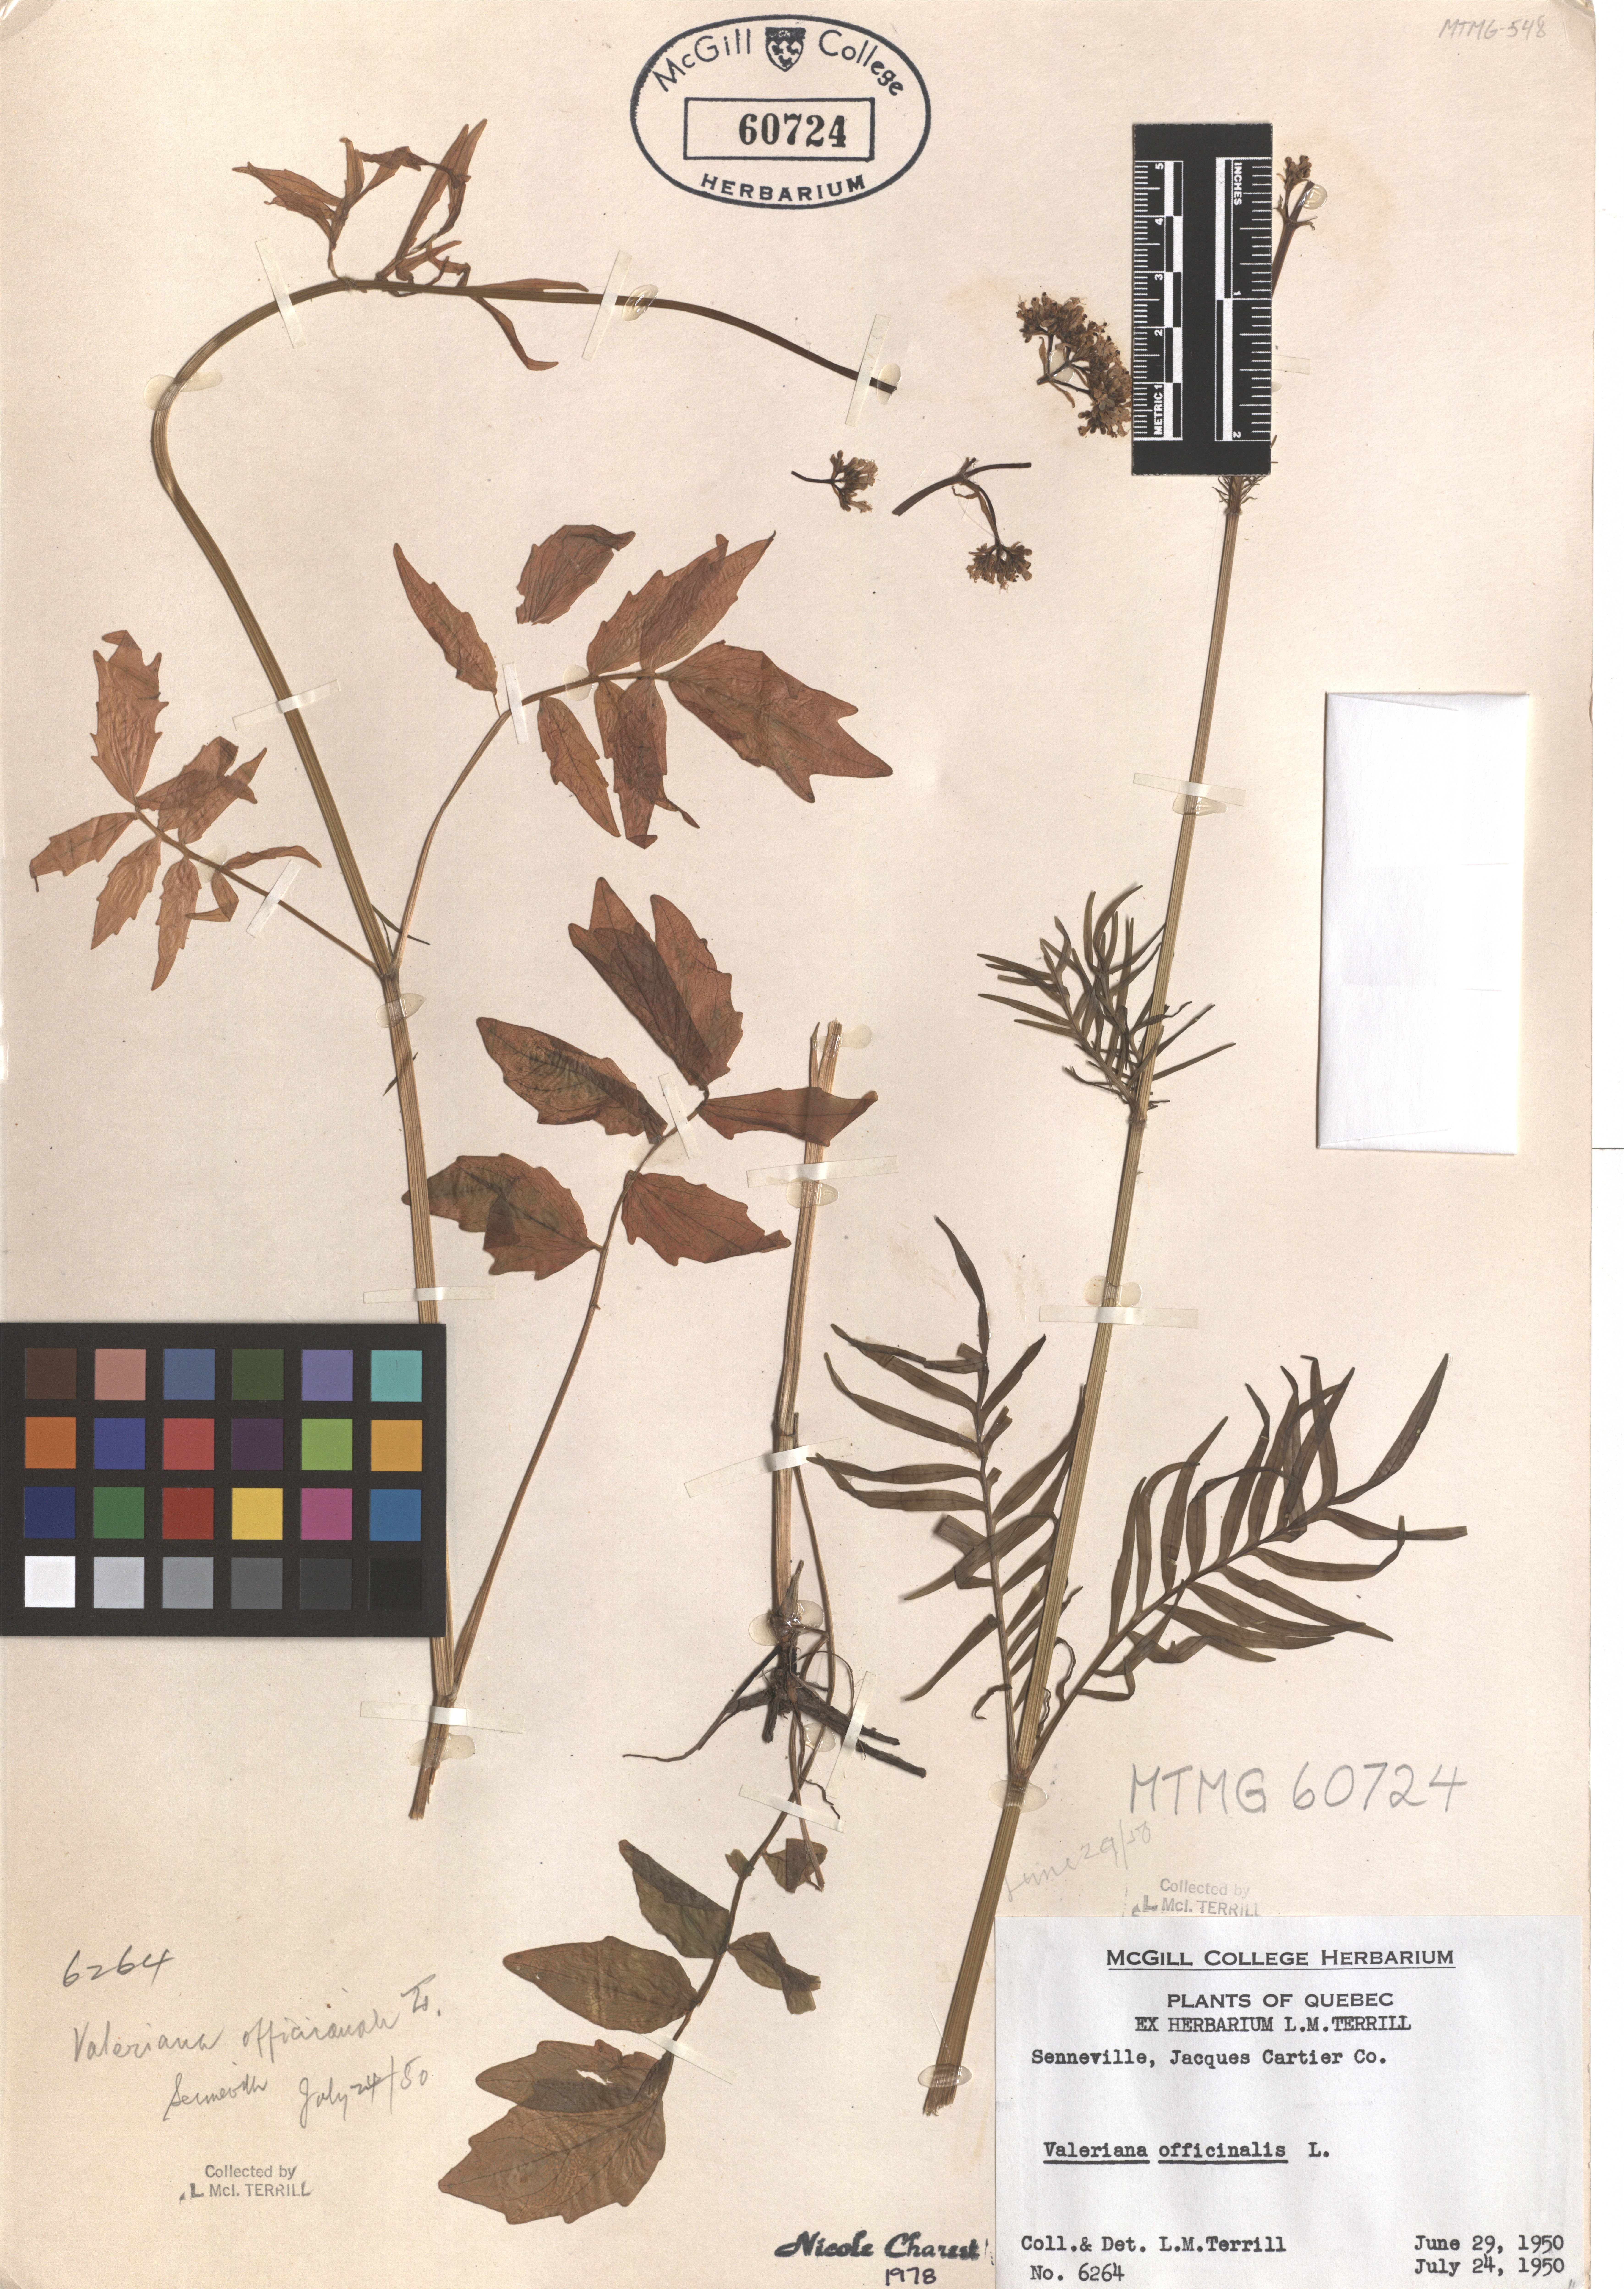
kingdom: Plantae
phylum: Tracheophyta
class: Magnoliopsida
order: Dipsacales
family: Caprifoliaceae
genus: Valeriana
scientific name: Valeriana officinalis
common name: Common valerian
